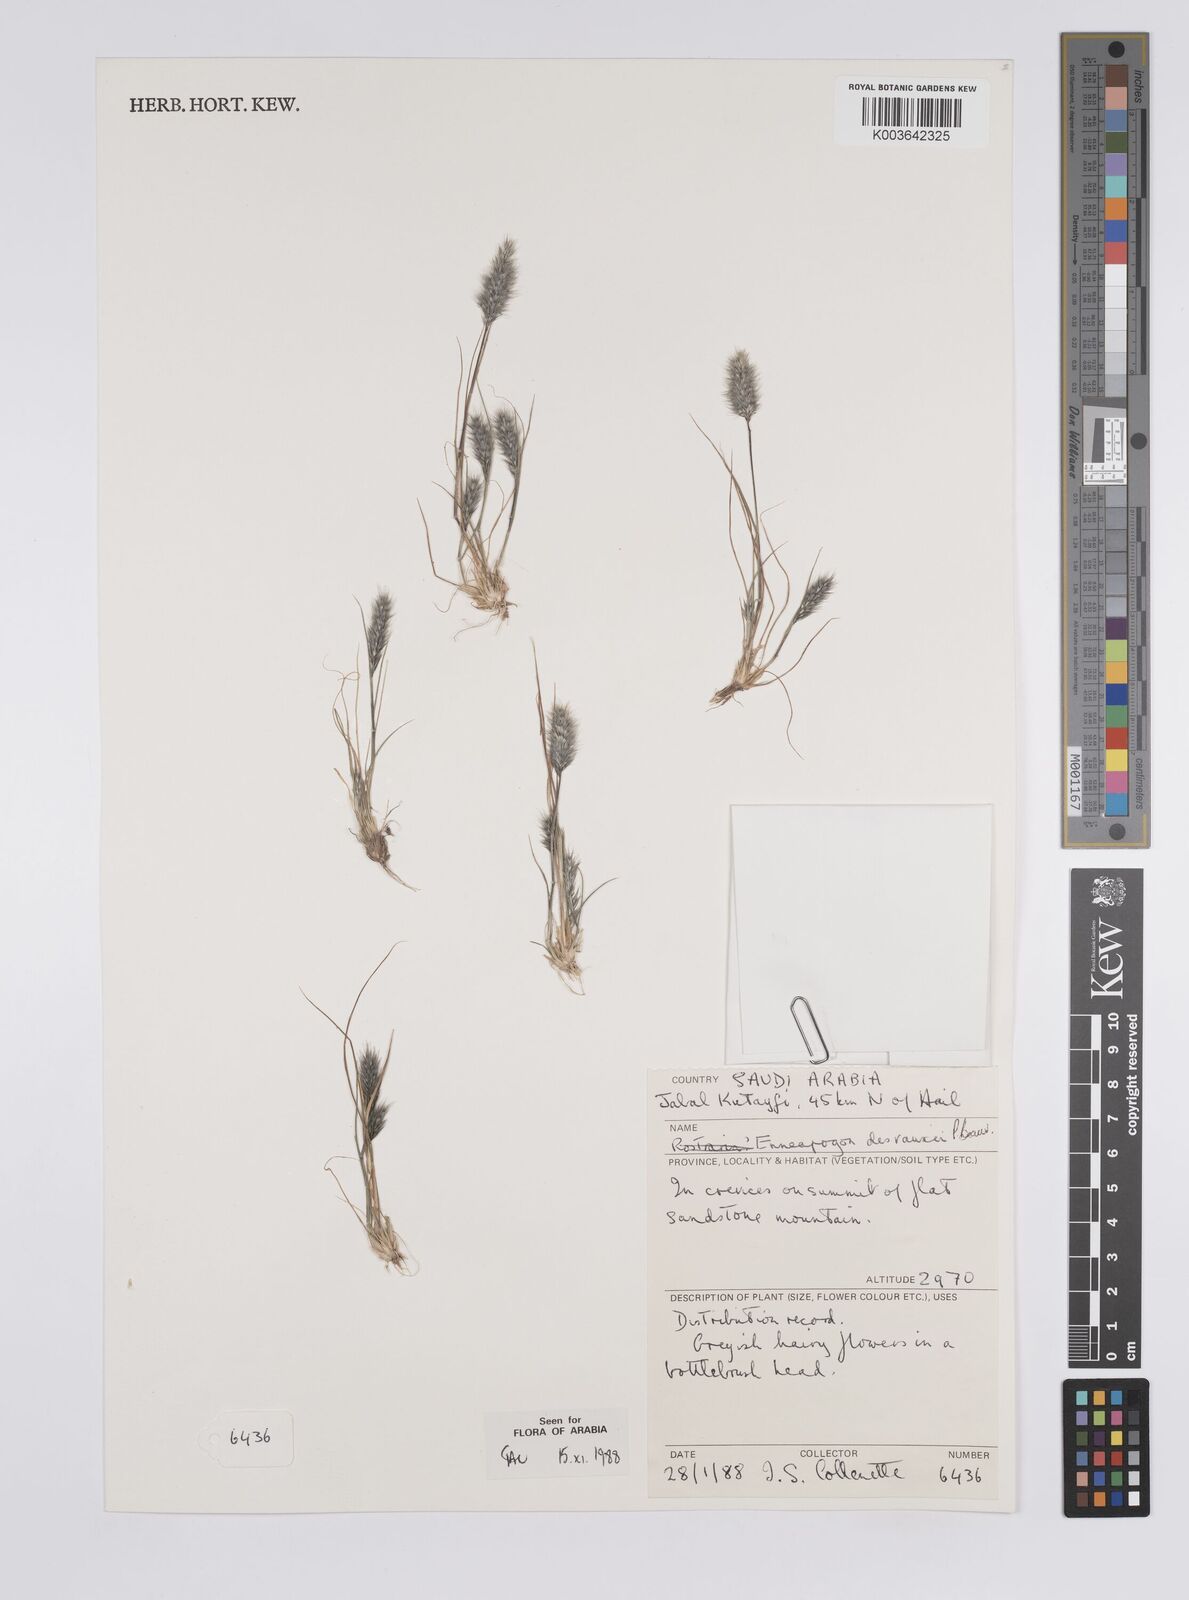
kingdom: Plantae
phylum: Tracheophyta
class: Liliopsida
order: Poales
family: Poaceae
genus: Enneapogon
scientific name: Enneapogon desvauxii
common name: Feather pappus grass
